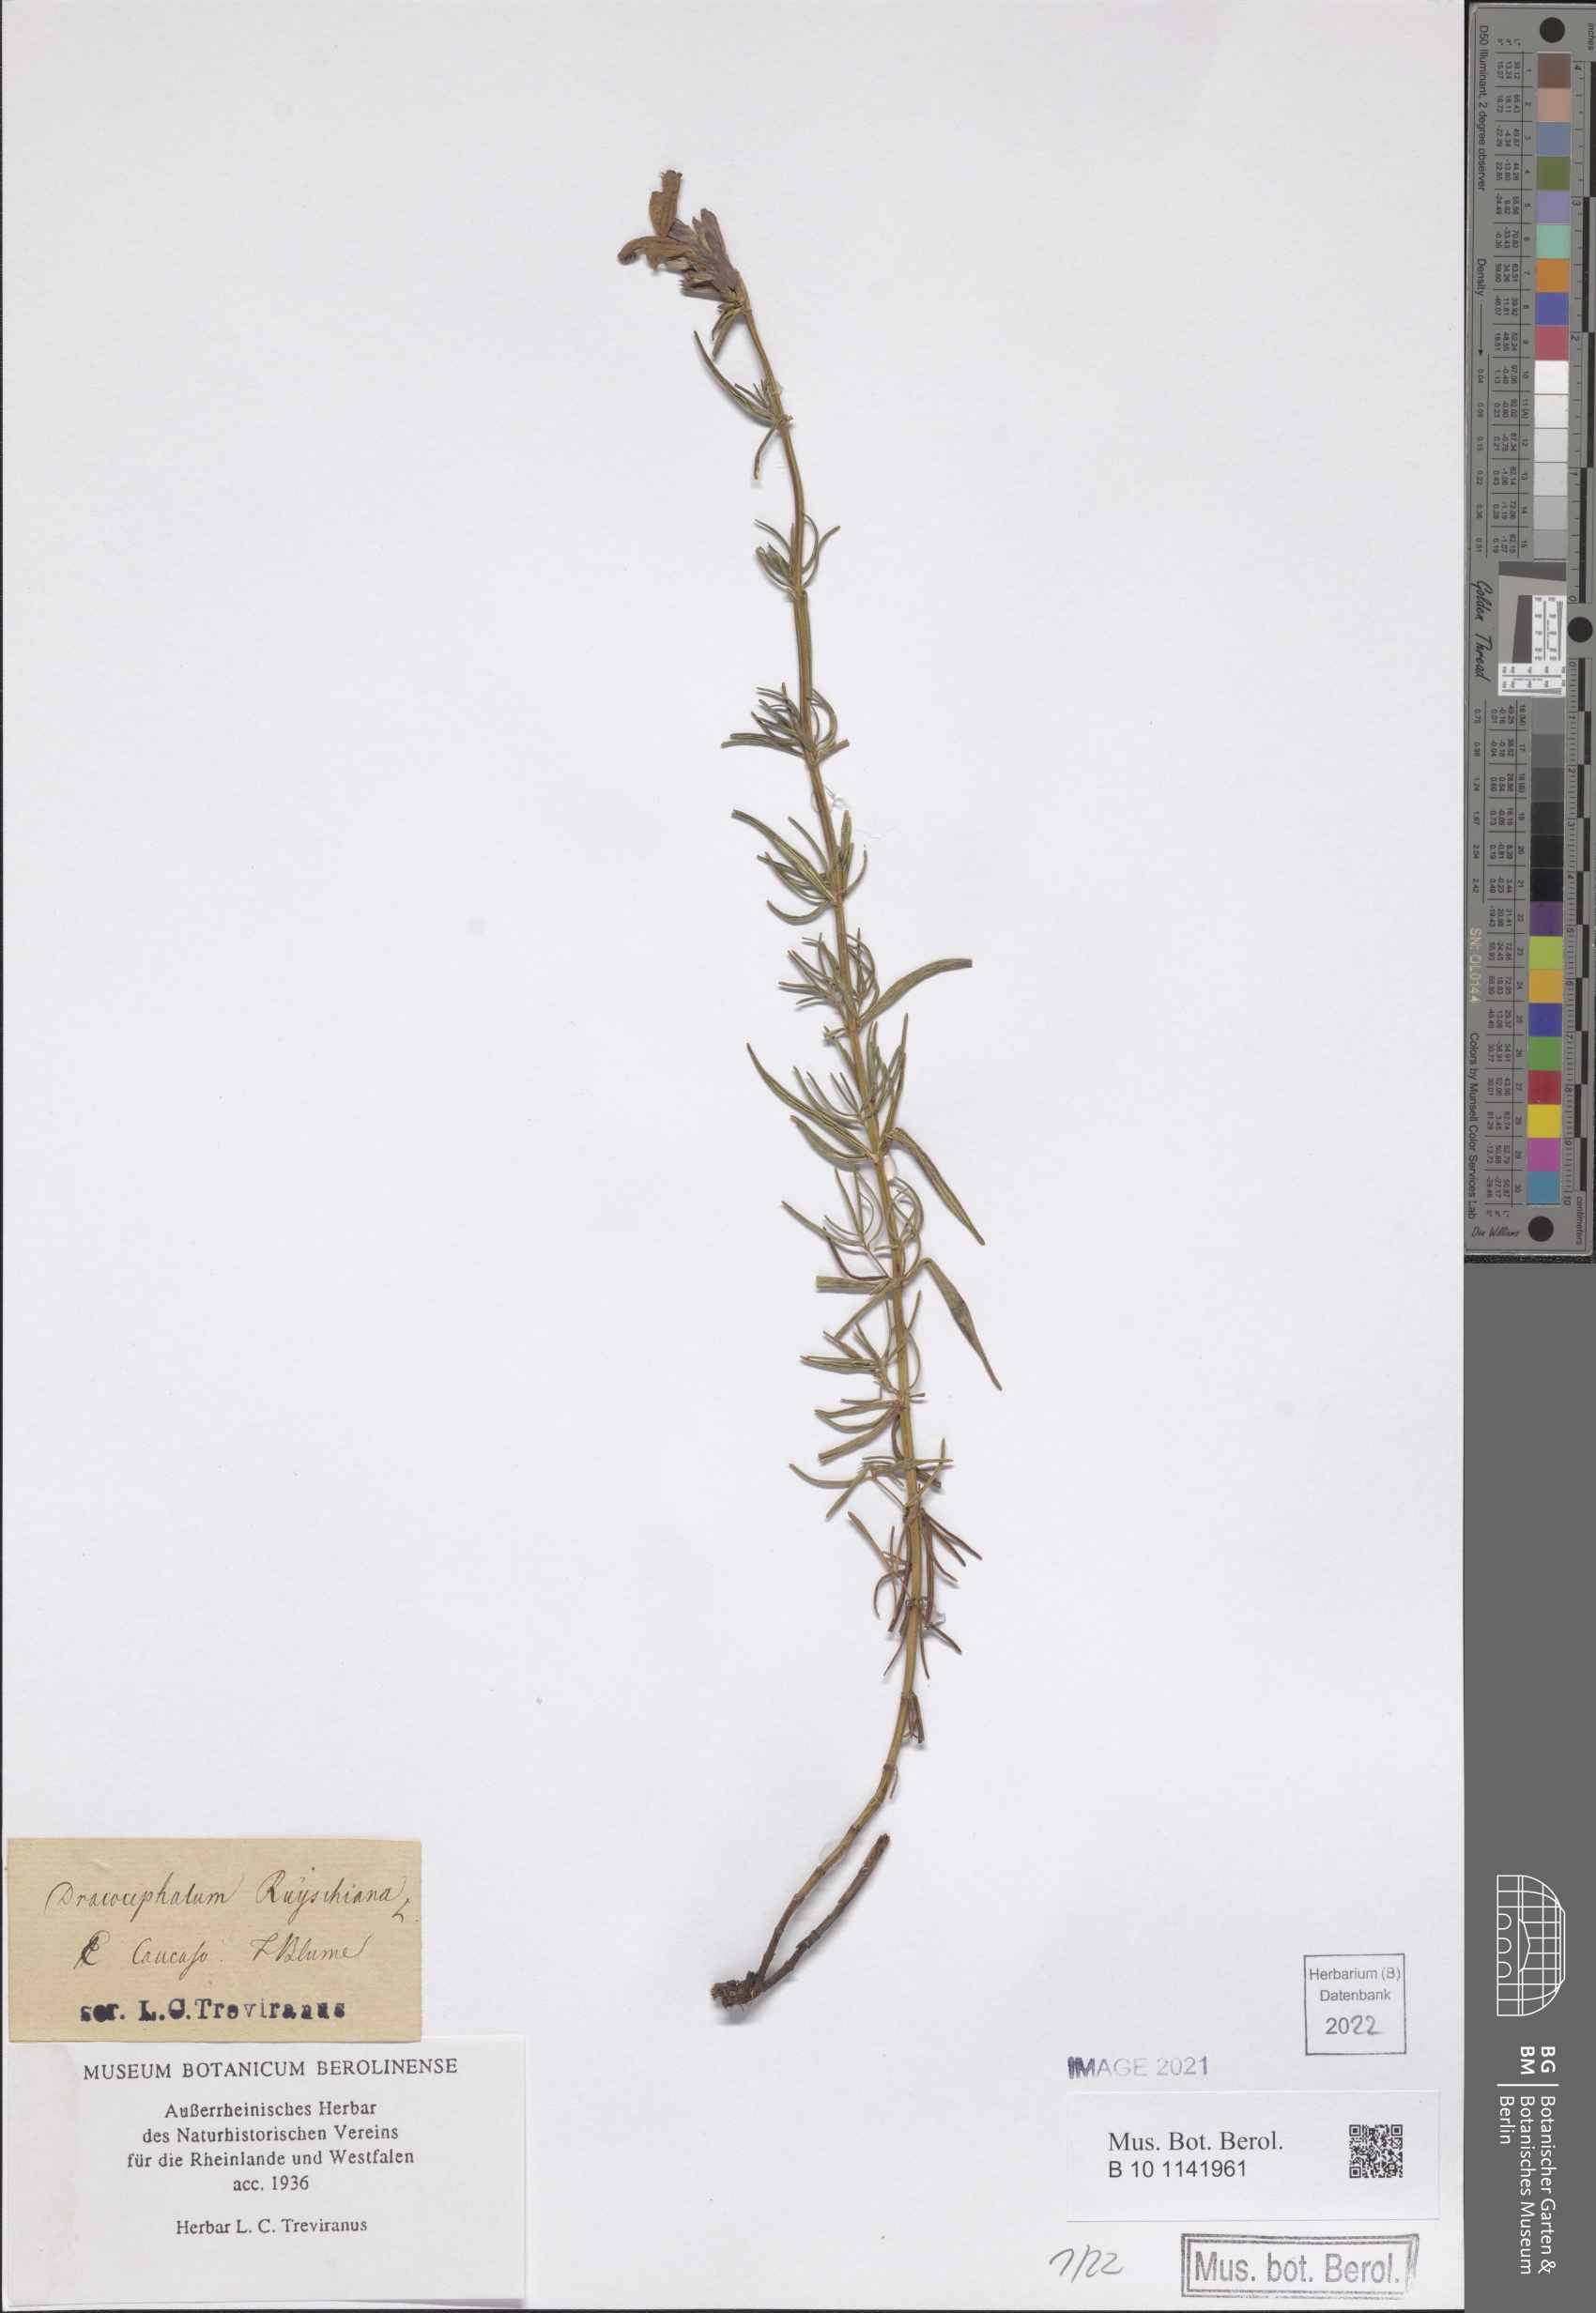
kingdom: Plantae
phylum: Tracheophyta
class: Magnoliopsida
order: Lamiales
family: Lamiaceae
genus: Dracocephalum
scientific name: Dracocephalum ruyschiana
